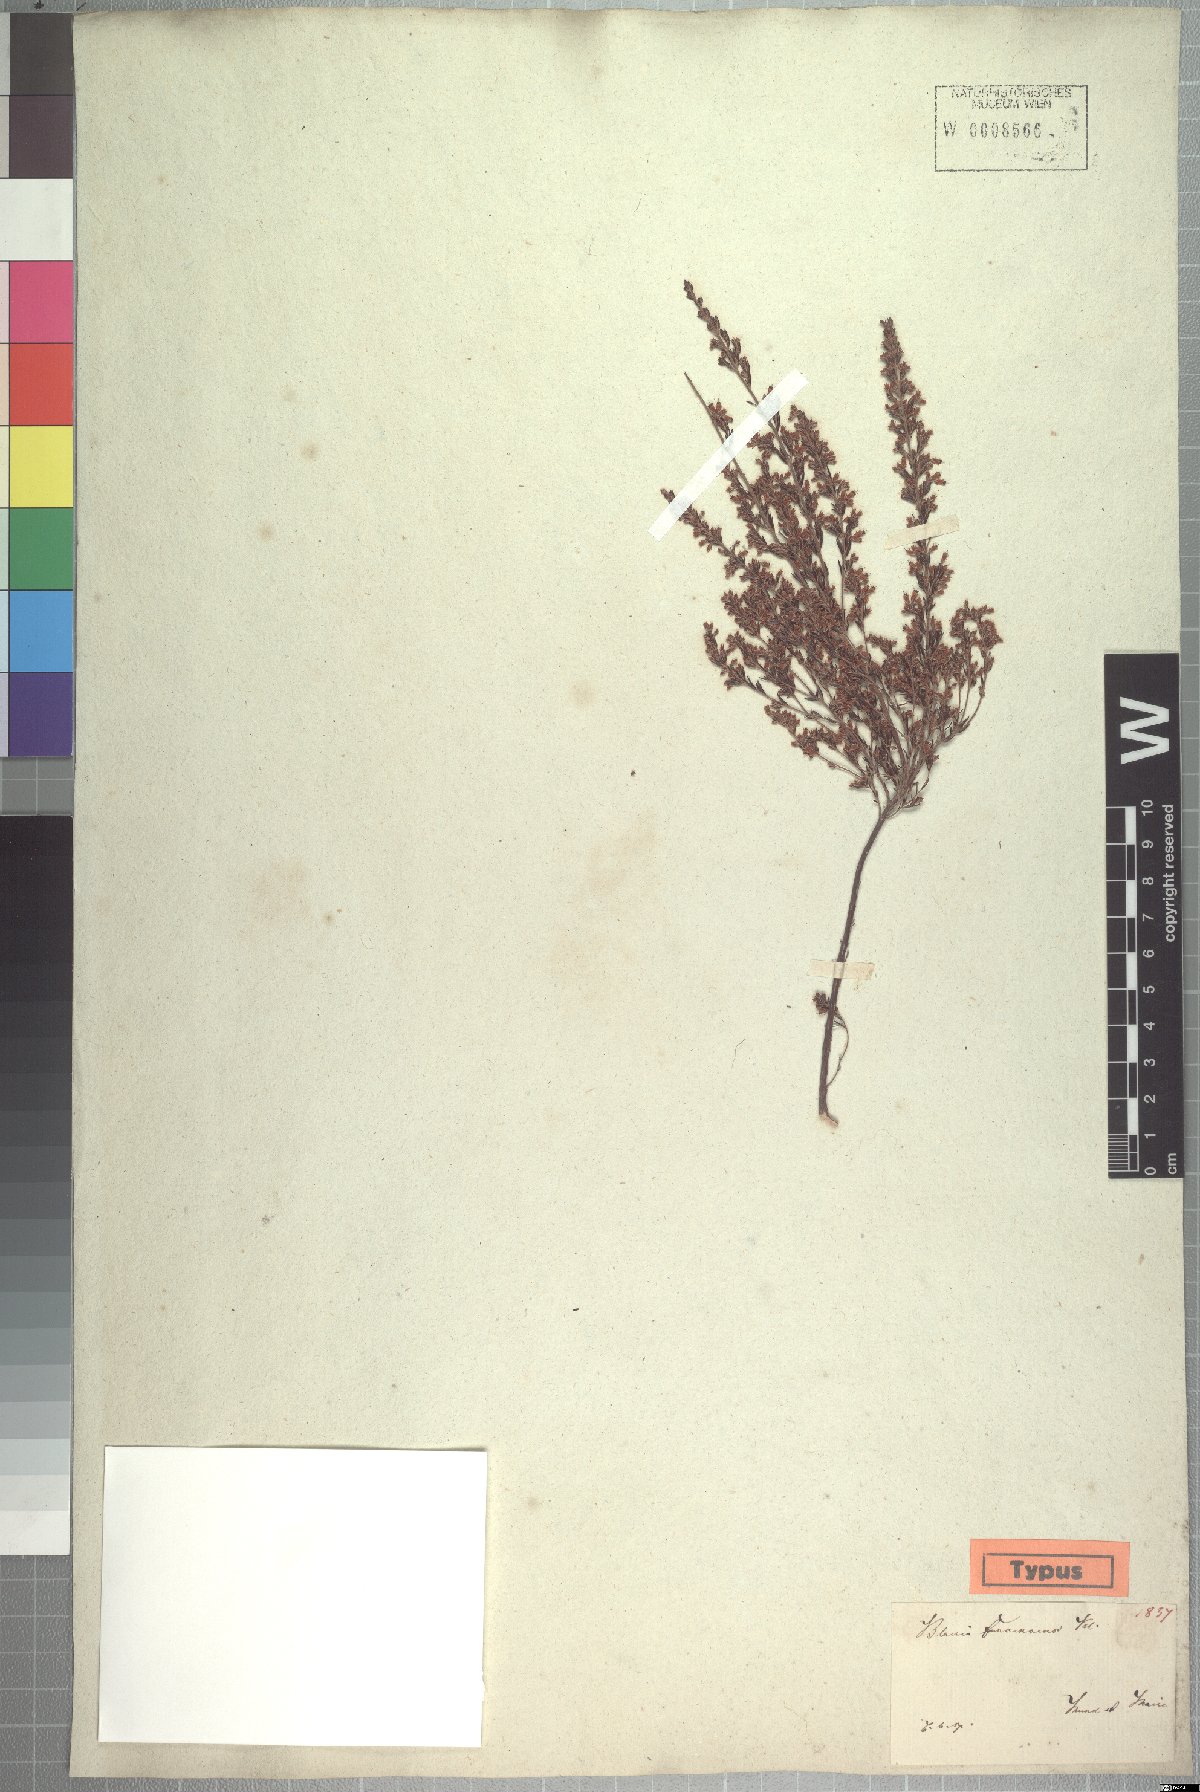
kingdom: Plantae
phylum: Tracheophyta
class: Magnoliopsida
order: Ericales
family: Ericaceae
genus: Erica
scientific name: Erica fuscescens
